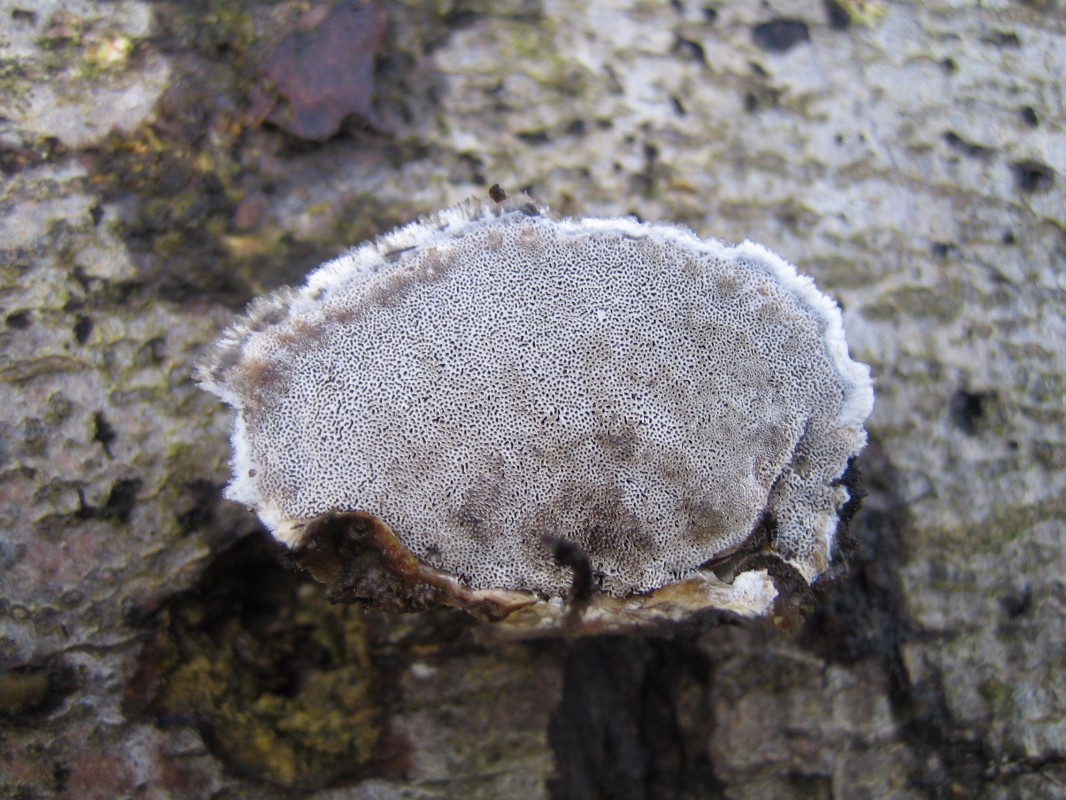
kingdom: Fungi
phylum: Basidiomycota
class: Agaricomycetes
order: Polyporales
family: Phanerochaetaceae
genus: Bjerkandera
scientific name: Bjerkandera adusta
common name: sveden sodporesvamp
